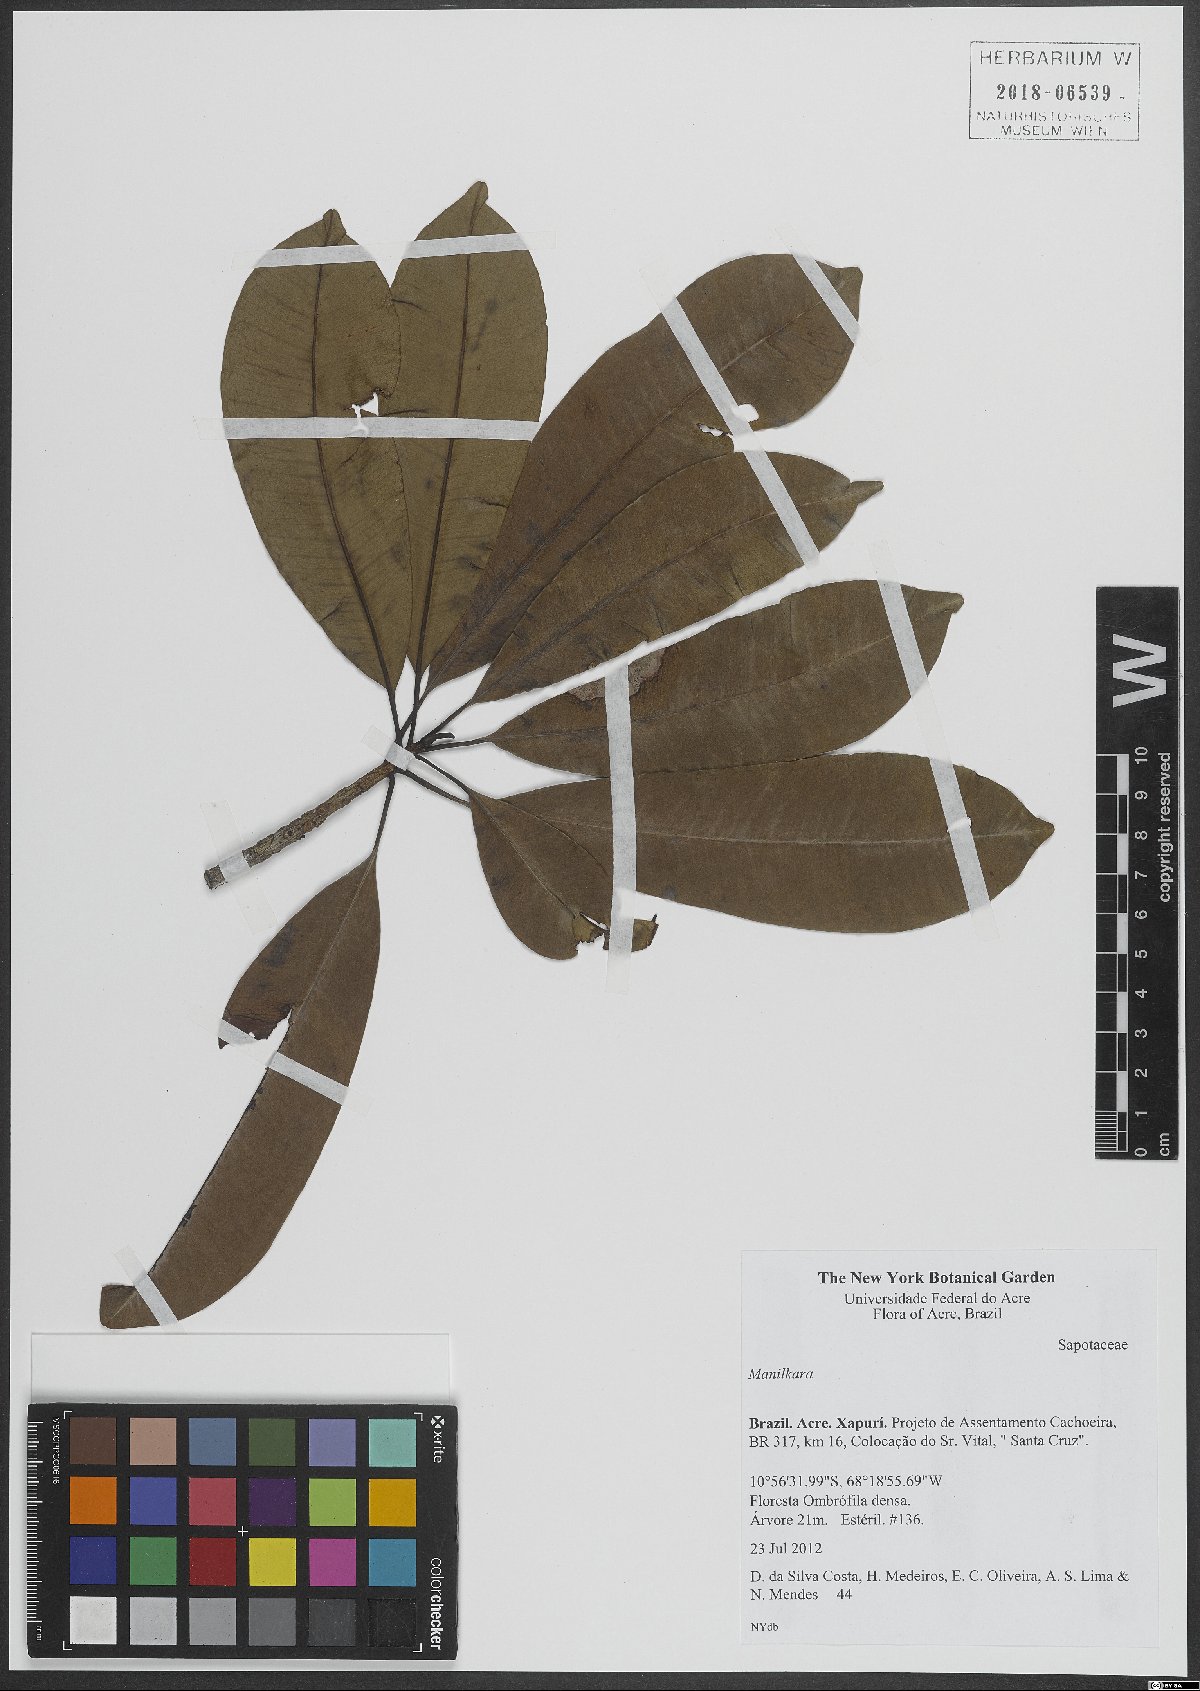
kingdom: Plantae
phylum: Tracheophyta
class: Magnoliopsida
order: Ericales
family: Sapotaceae
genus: Manilkara
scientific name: Manilkara
